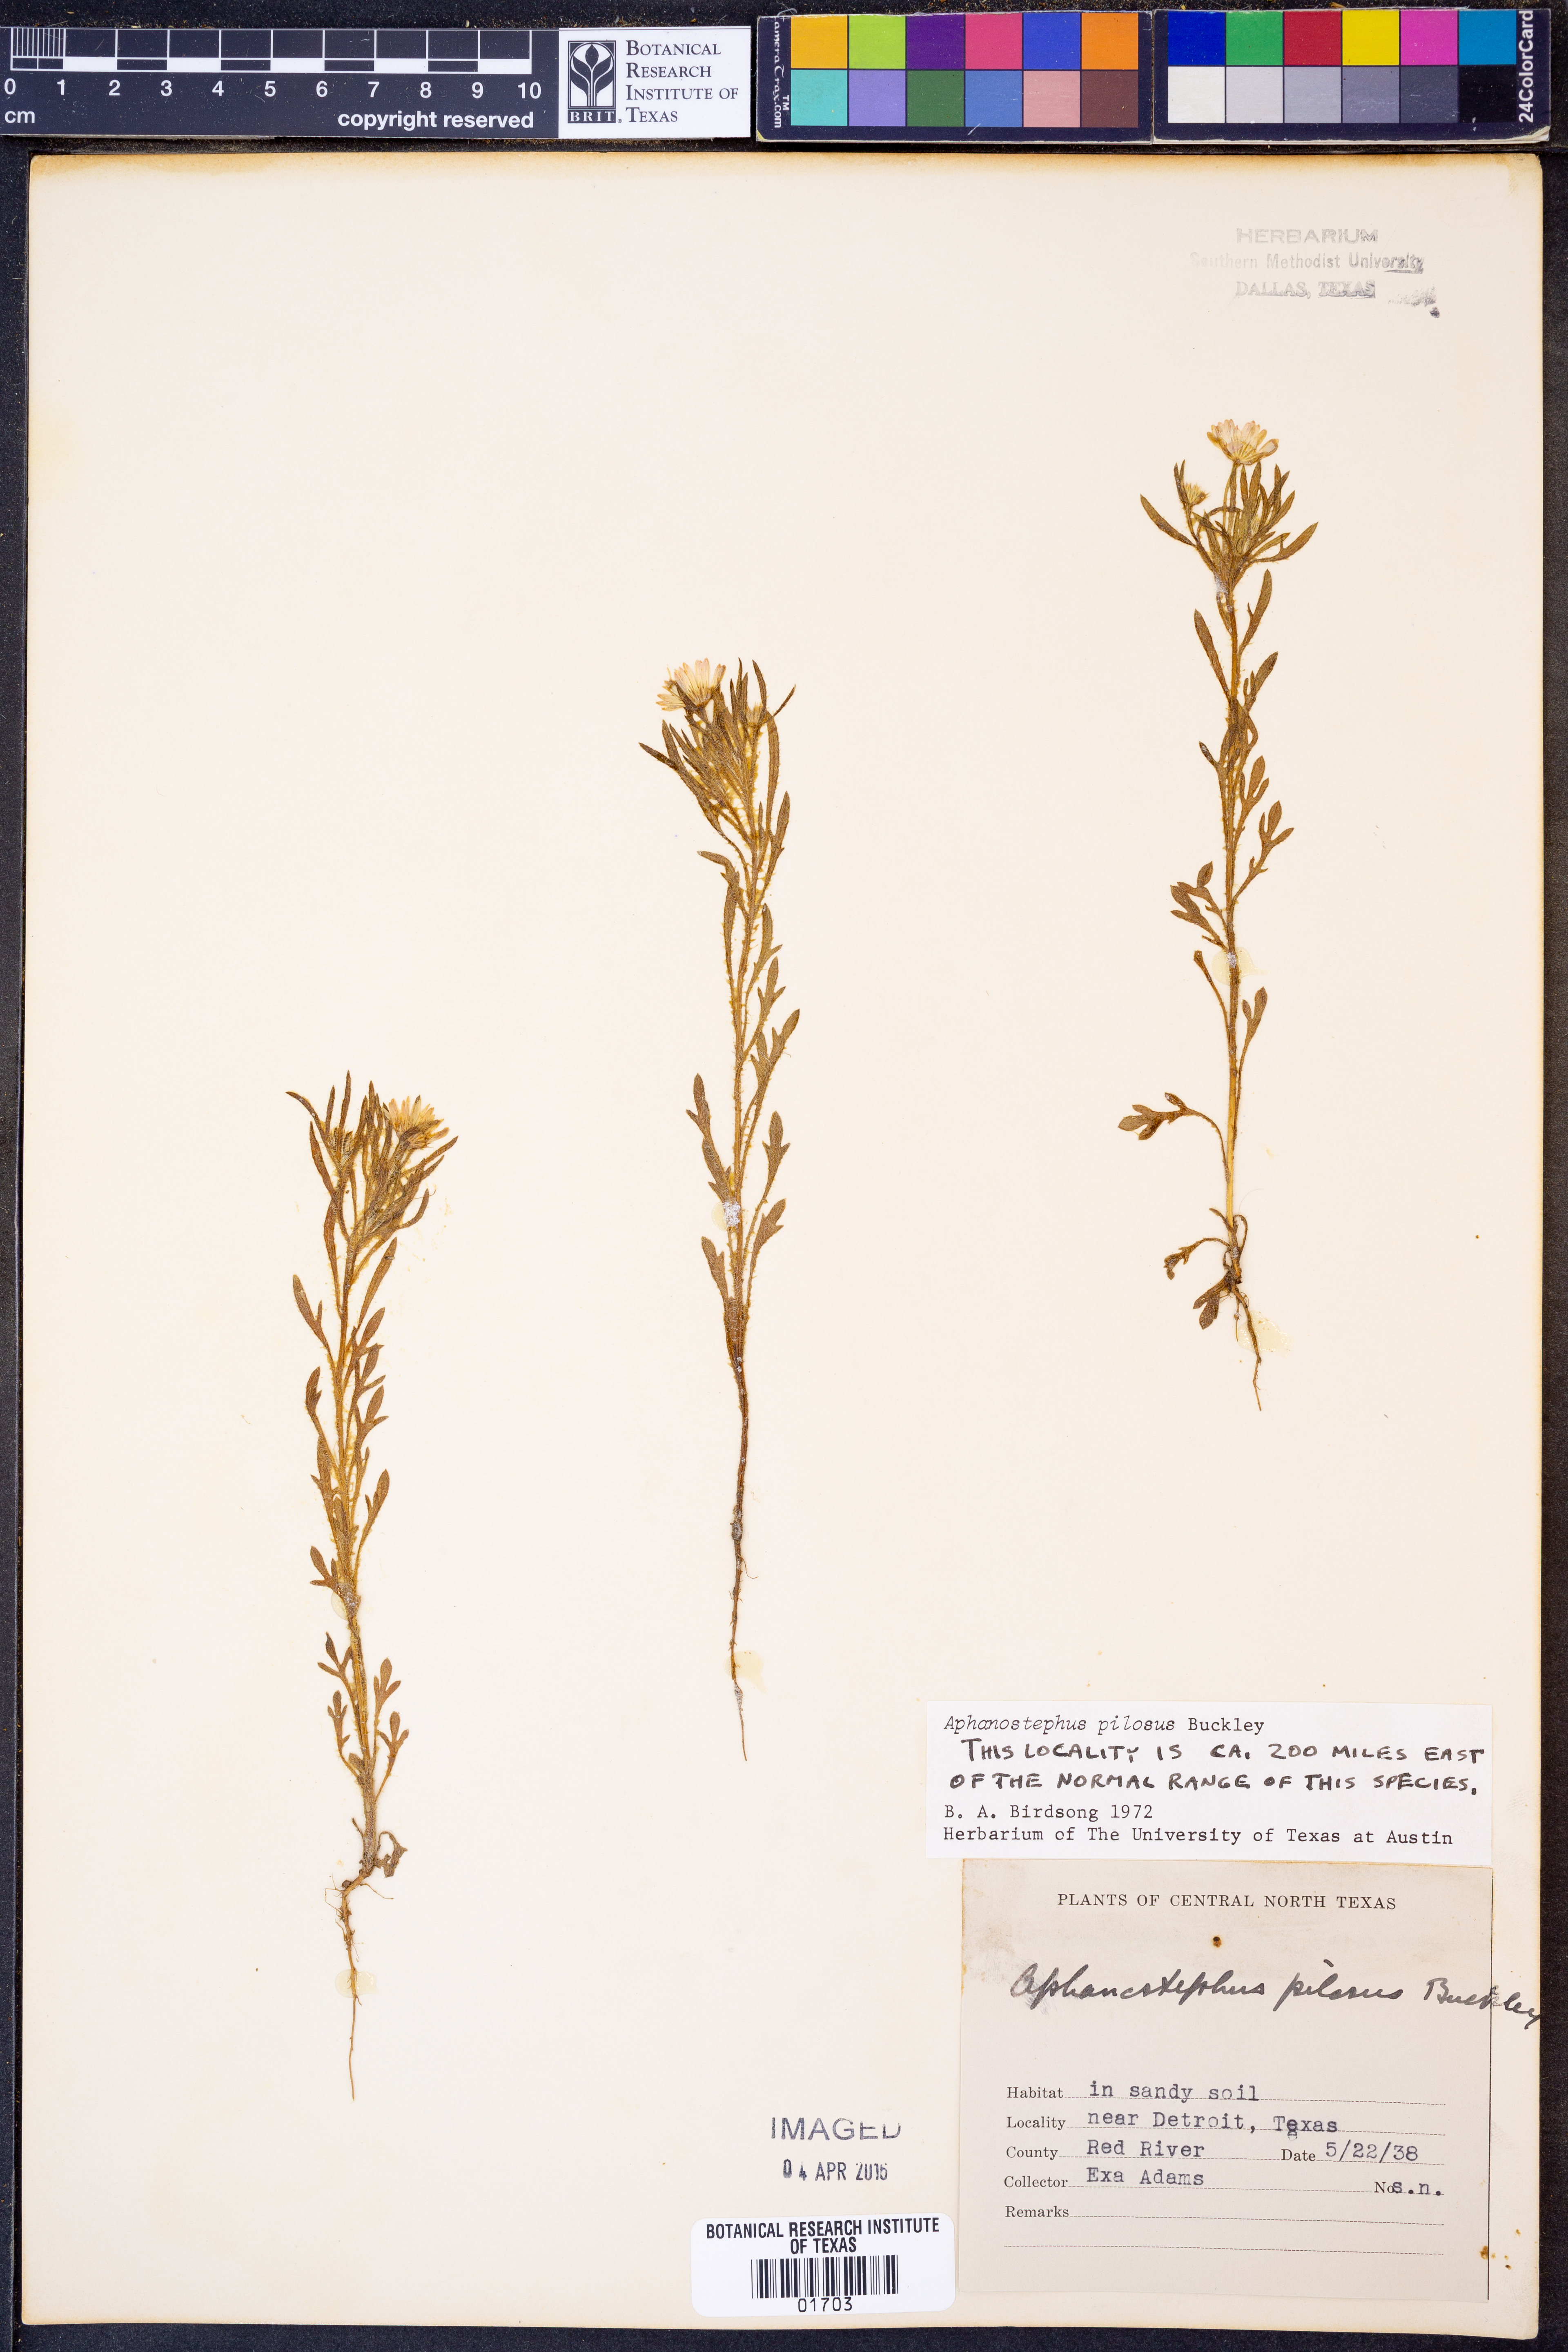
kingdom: Plantae
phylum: Tracheophyta
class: Magnoliopsida
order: Asterales
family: Asteraceae
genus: Aphanostephus
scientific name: Aphanostephus pilosus
